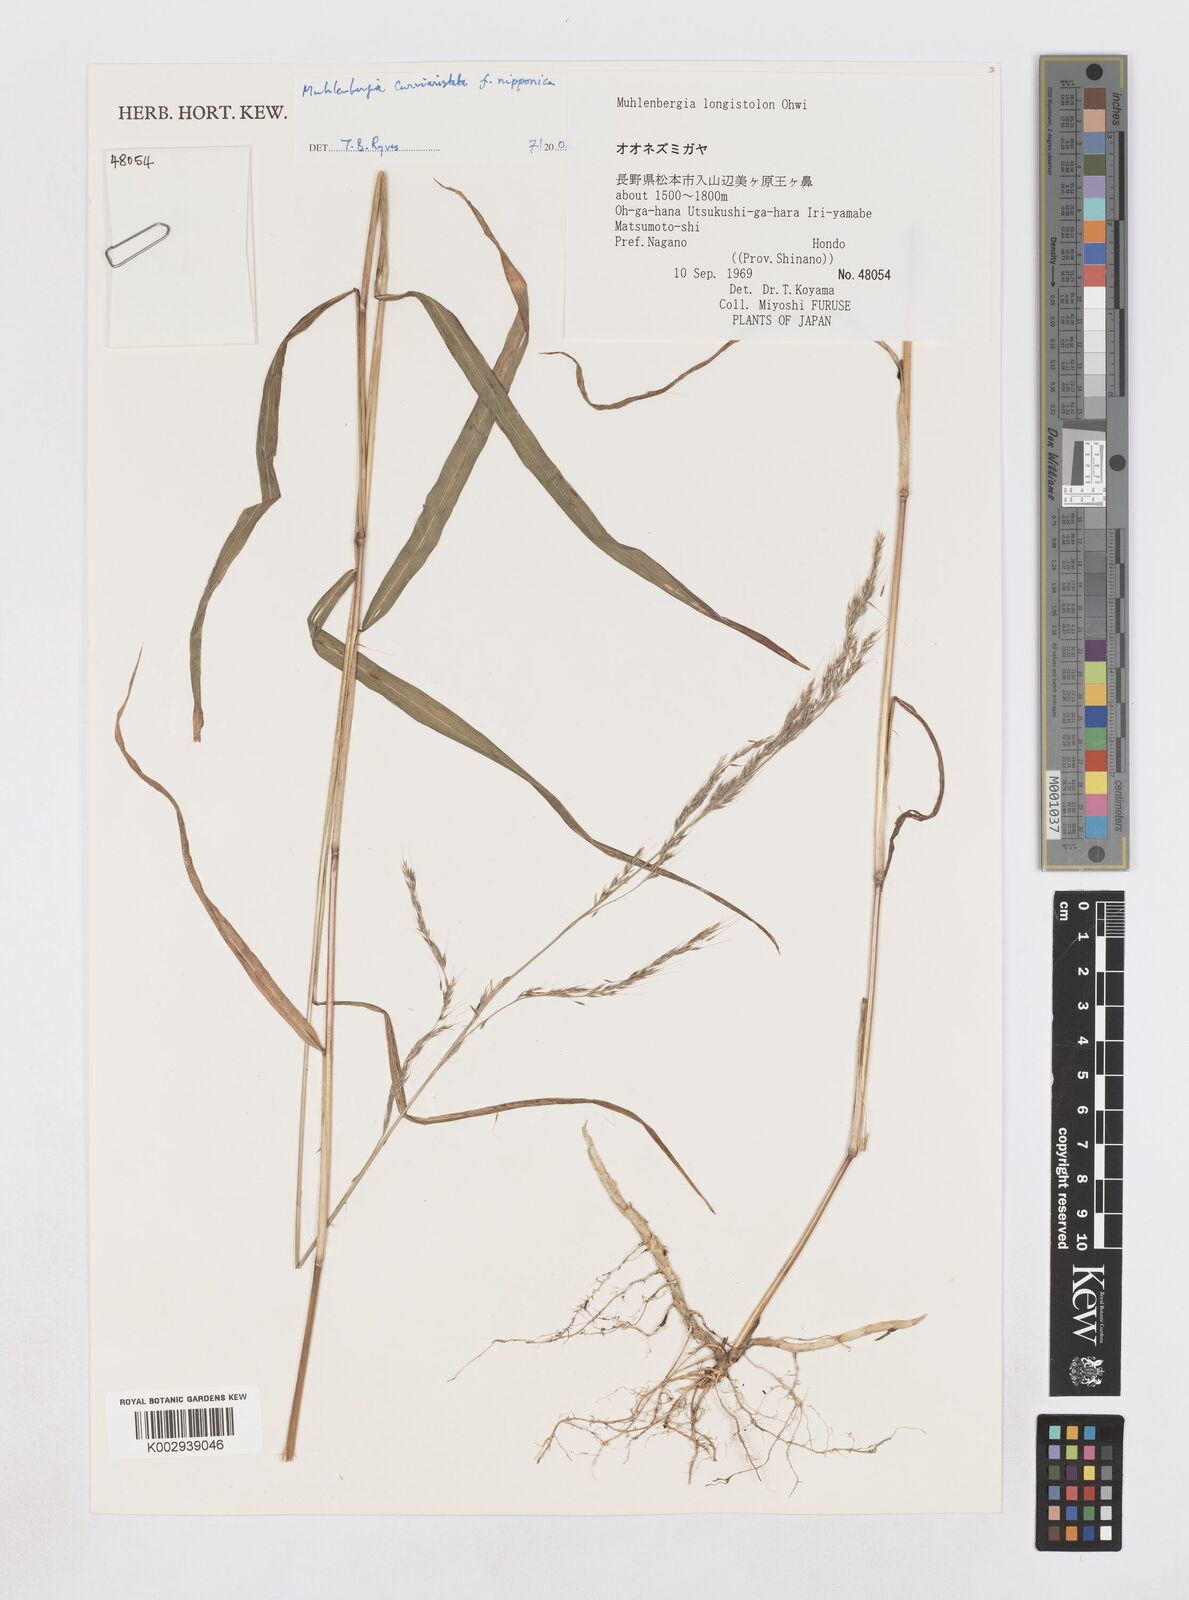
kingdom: Plantae
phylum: Tracheophyta
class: Liliopsida
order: Poales
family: Poaceae
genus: Muhlenbergia
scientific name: Muhlenbergia curviaristata
